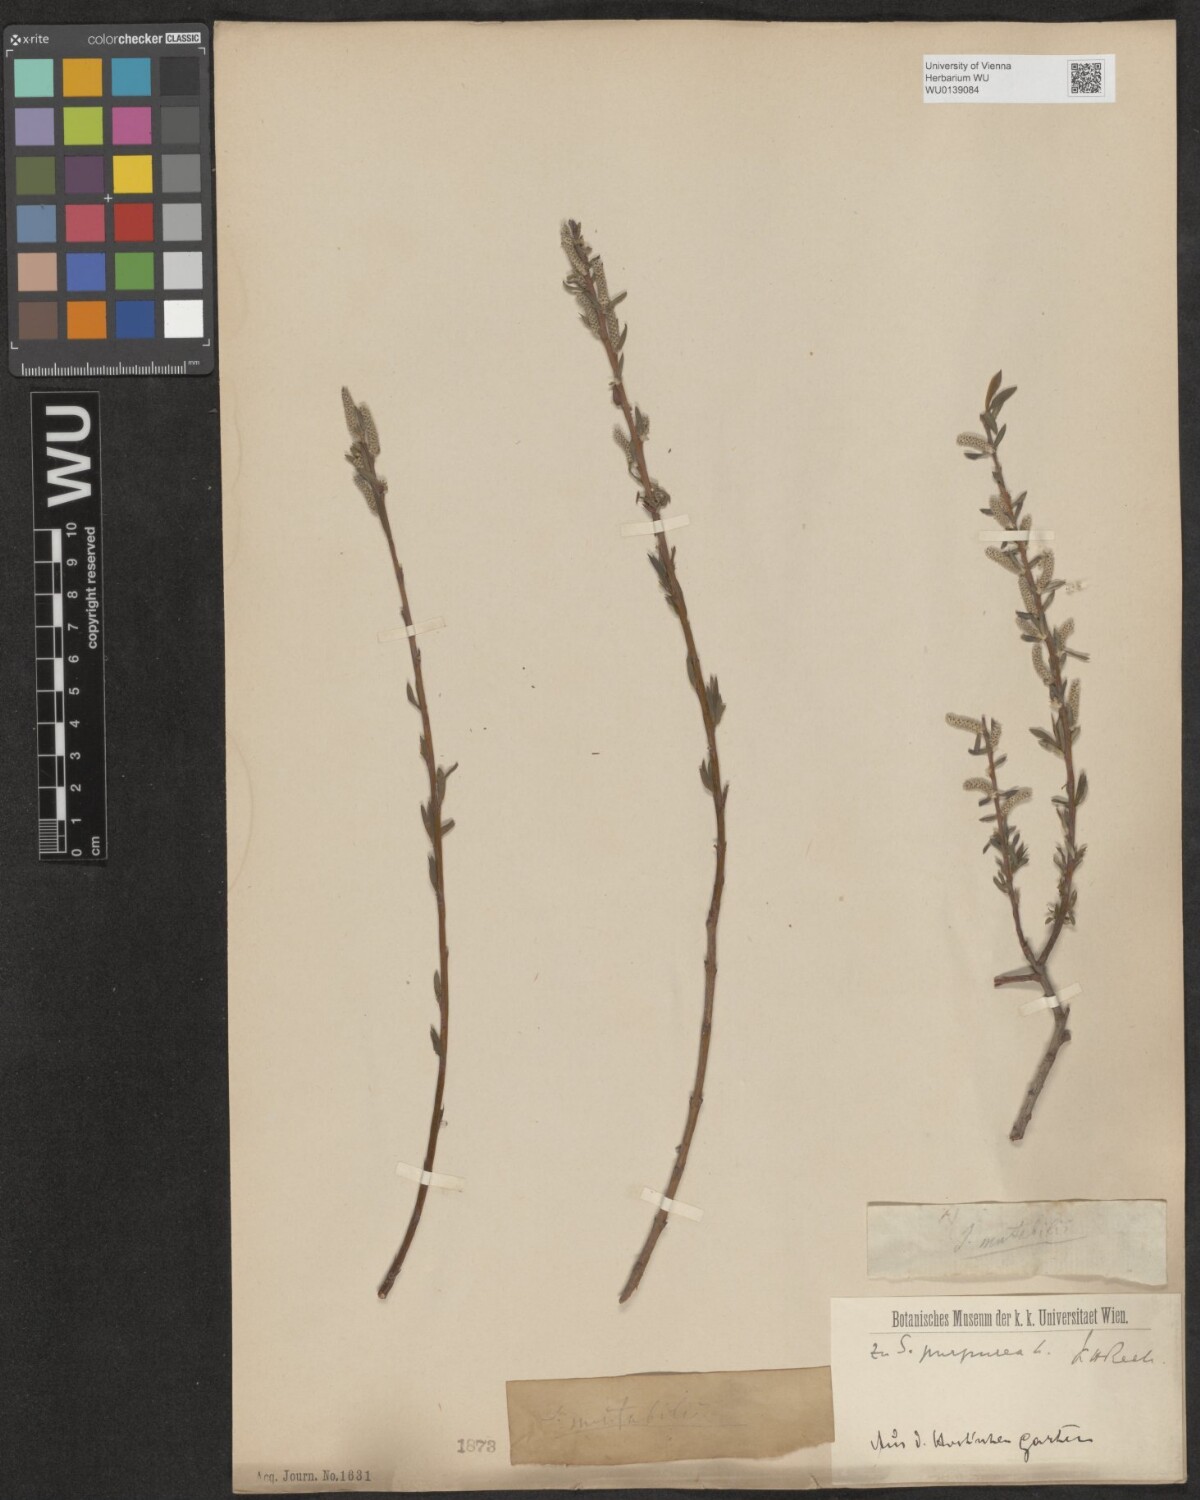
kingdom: Plantae
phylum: Tracheophyta
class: Magnoliopsida
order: Malpighiales
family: Salicaceae
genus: Salix
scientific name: Salix purpurea
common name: Purple willow
